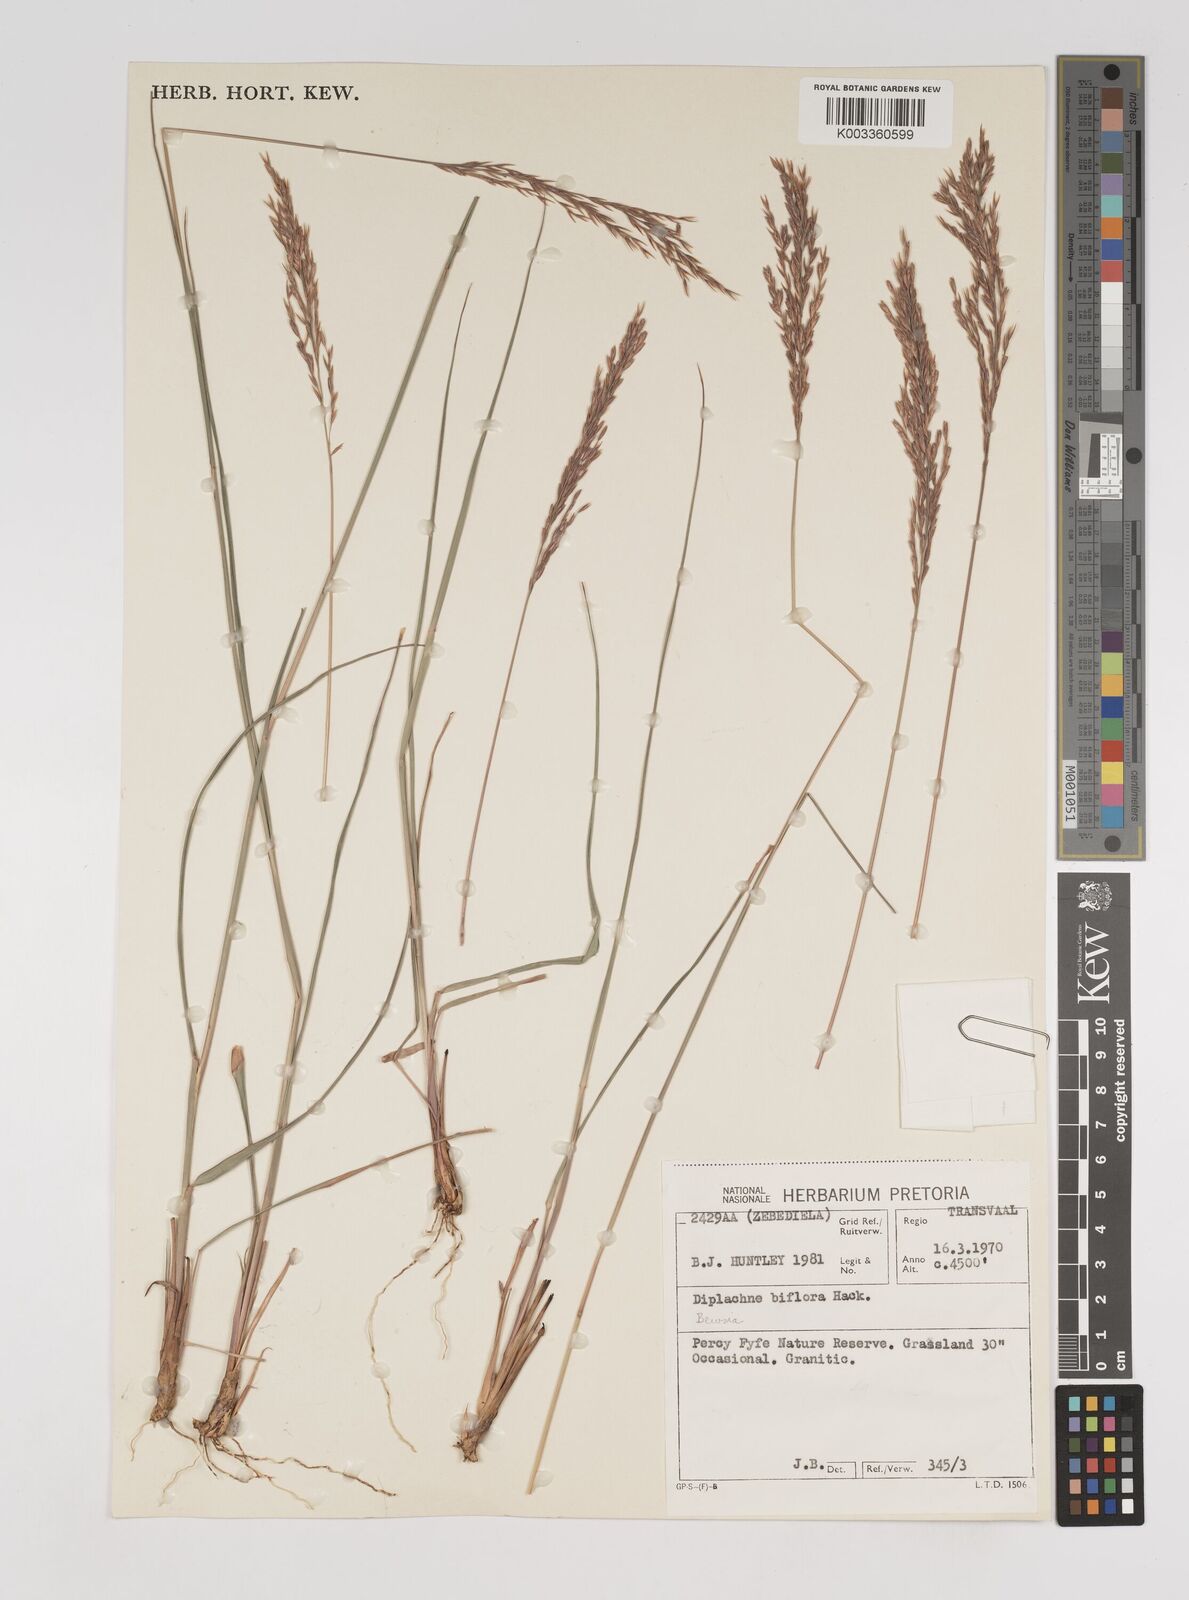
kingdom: Plantae
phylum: Tracheophyta
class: Liliopsida
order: Poales
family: Poaceae
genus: Bewsia
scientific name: Bewsia biflora
